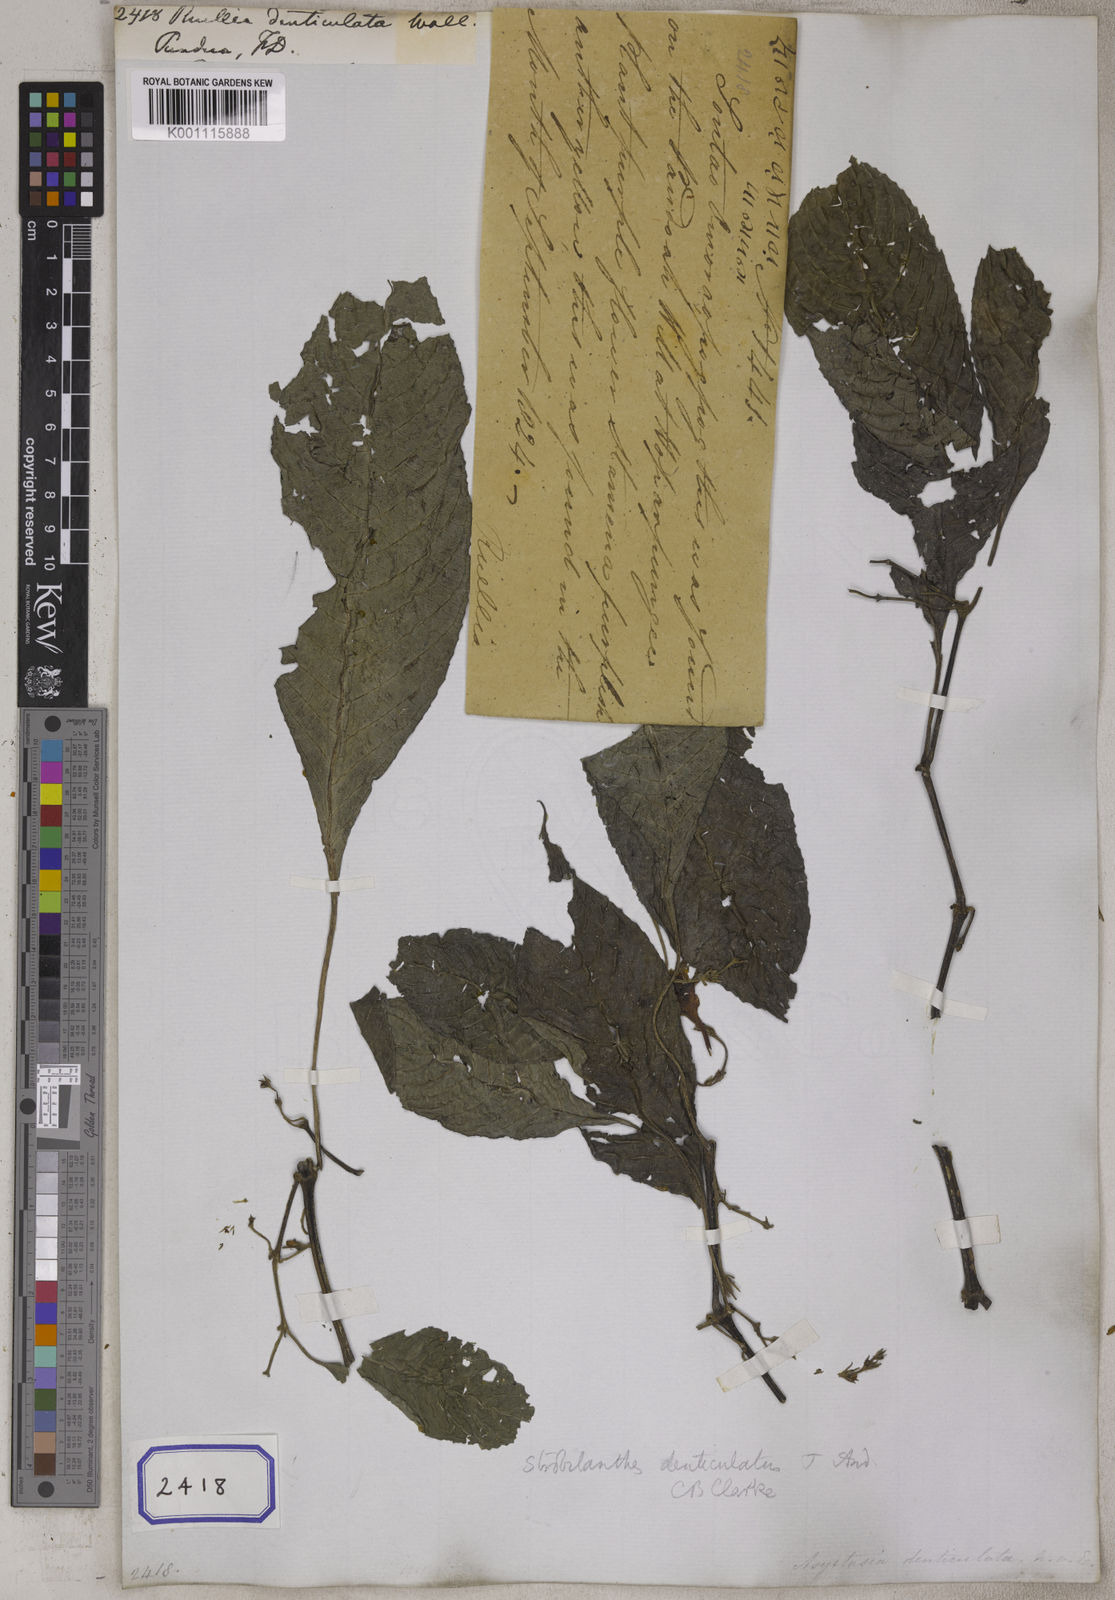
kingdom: Plantae
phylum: Tracheophyta
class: Magnoliopsida
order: Lamiales
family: Acanthaceae
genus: Strobilanthes
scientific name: Strobilanthes denticulata
